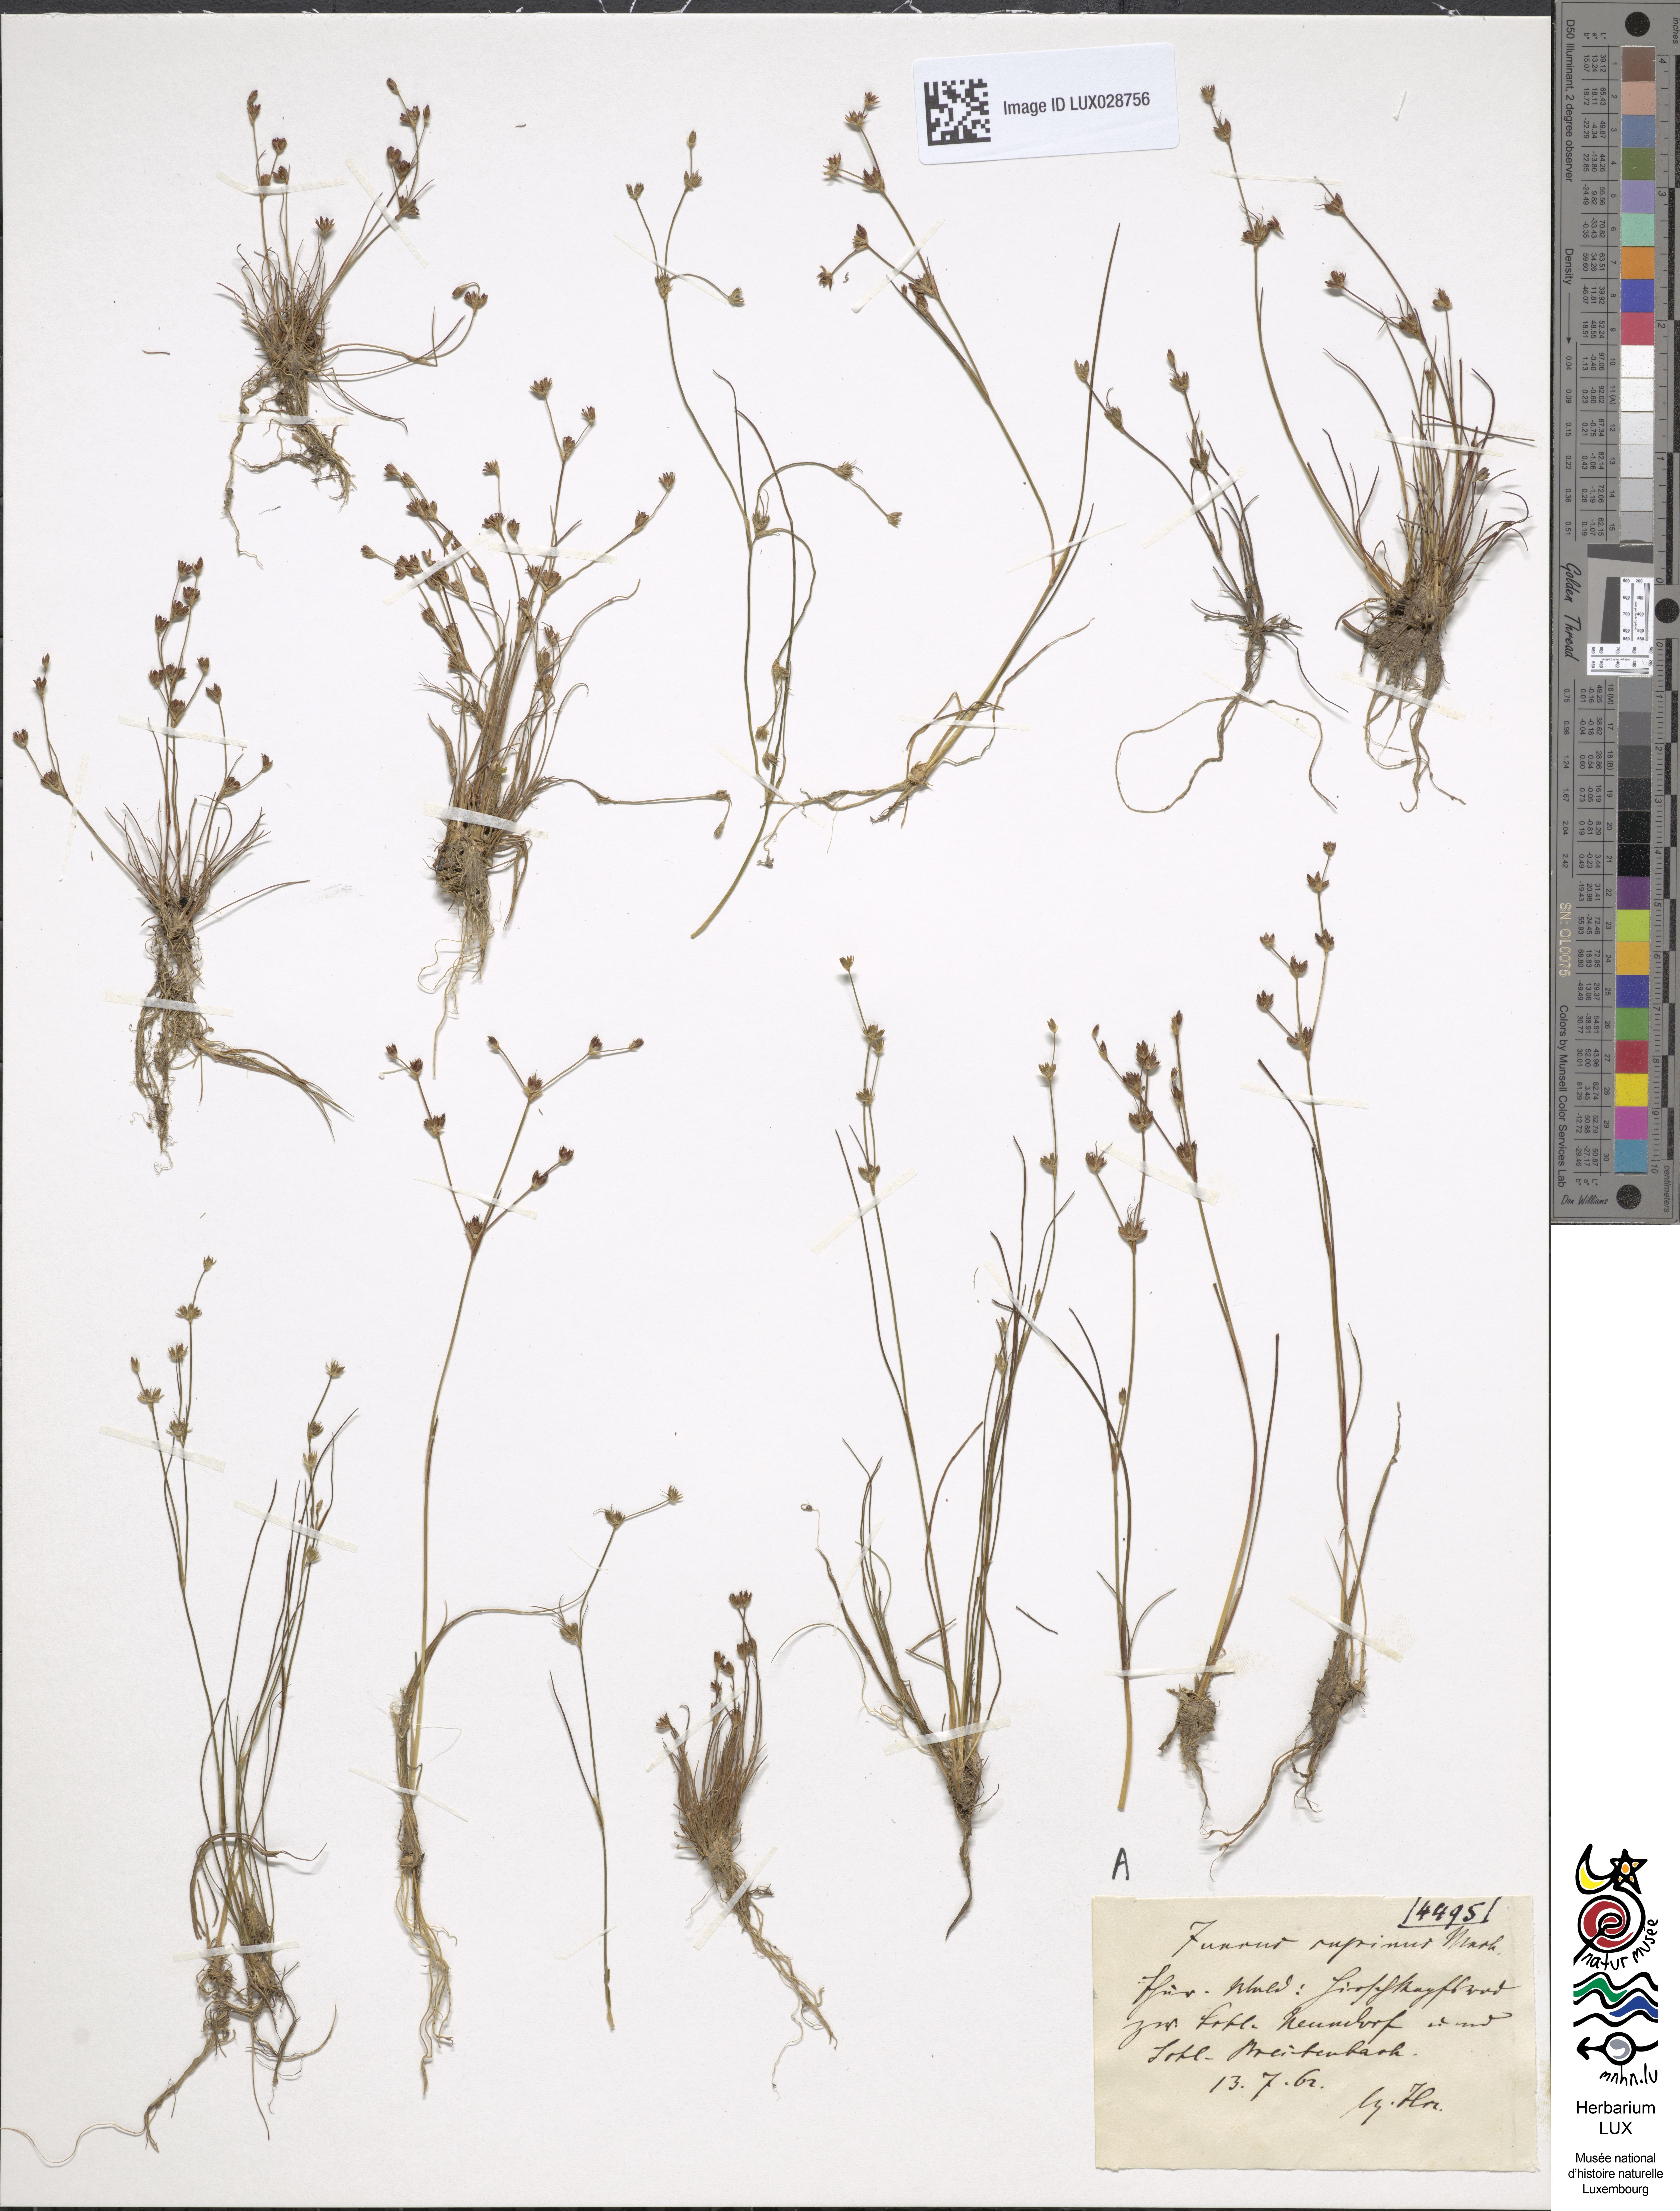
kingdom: Plantae
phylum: Tracheophyta
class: Liliopsida
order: Poales
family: Juncaceae
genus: Juncus
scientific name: Juncus bulbosus
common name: Bulbous rush
